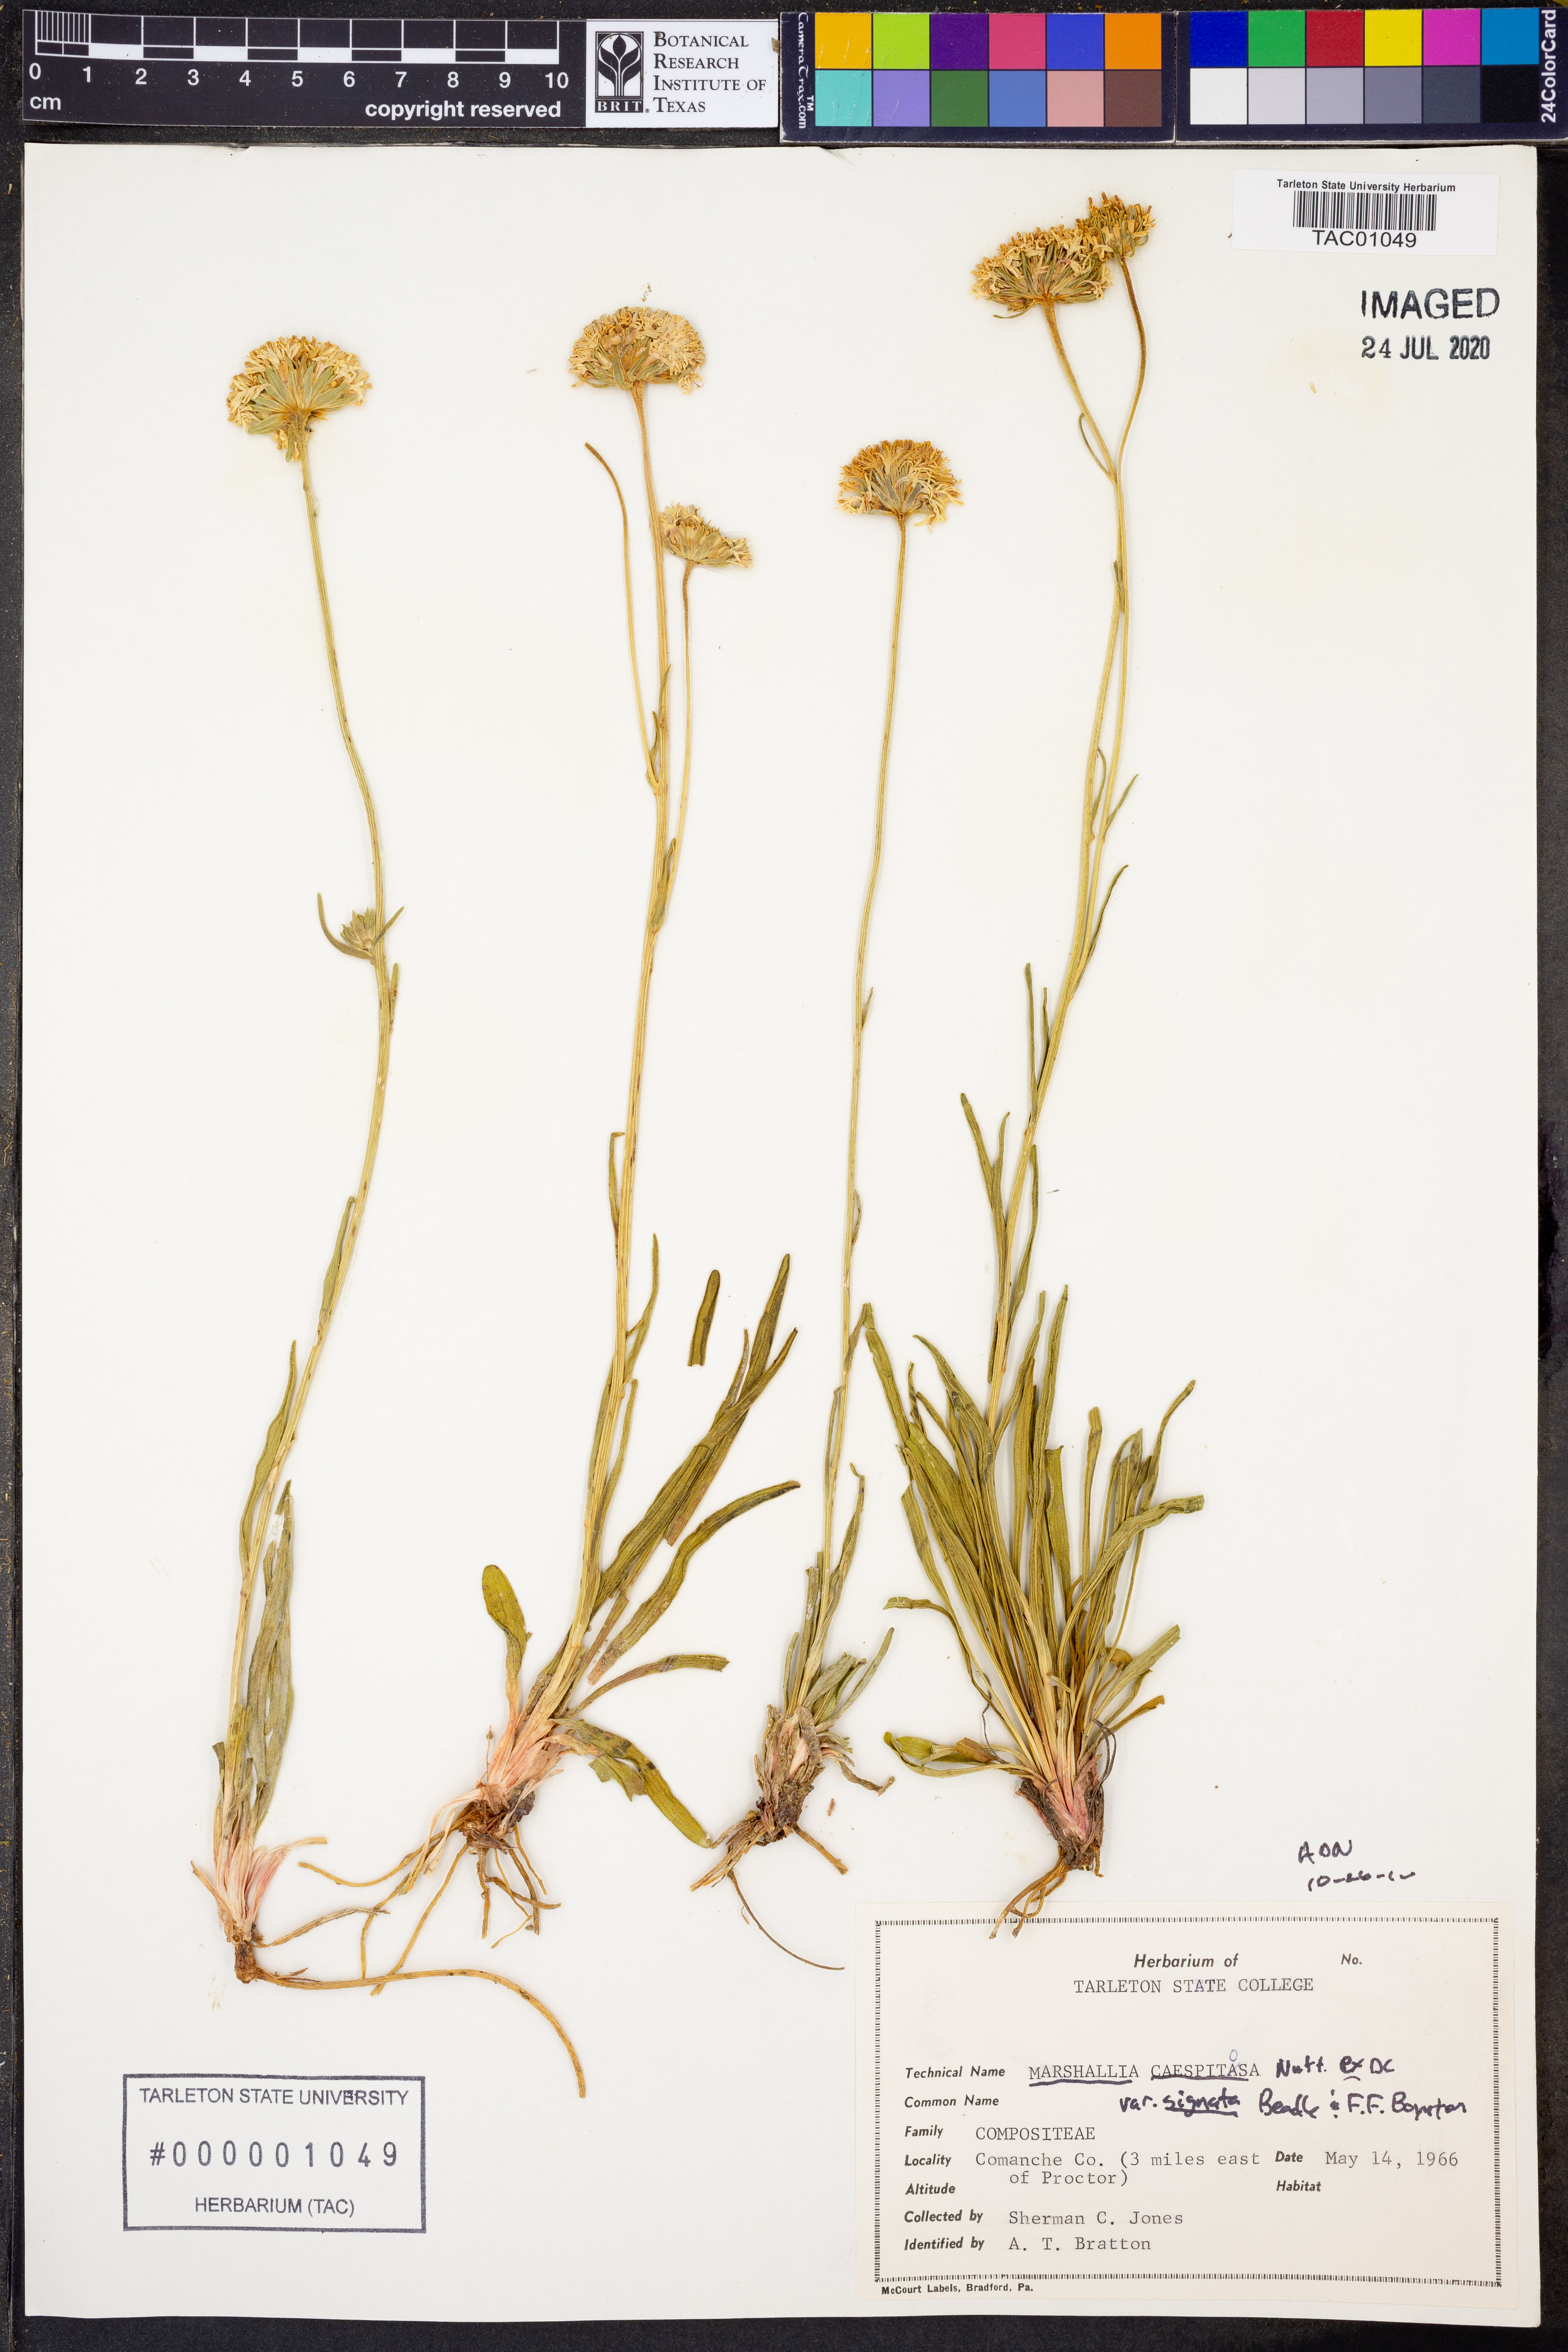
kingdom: Plantae
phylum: Tracheophyta
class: Magnoliopsida
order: Asterales
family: Asteraceae
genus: Marshallia
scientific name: Marshallia caespitosa
